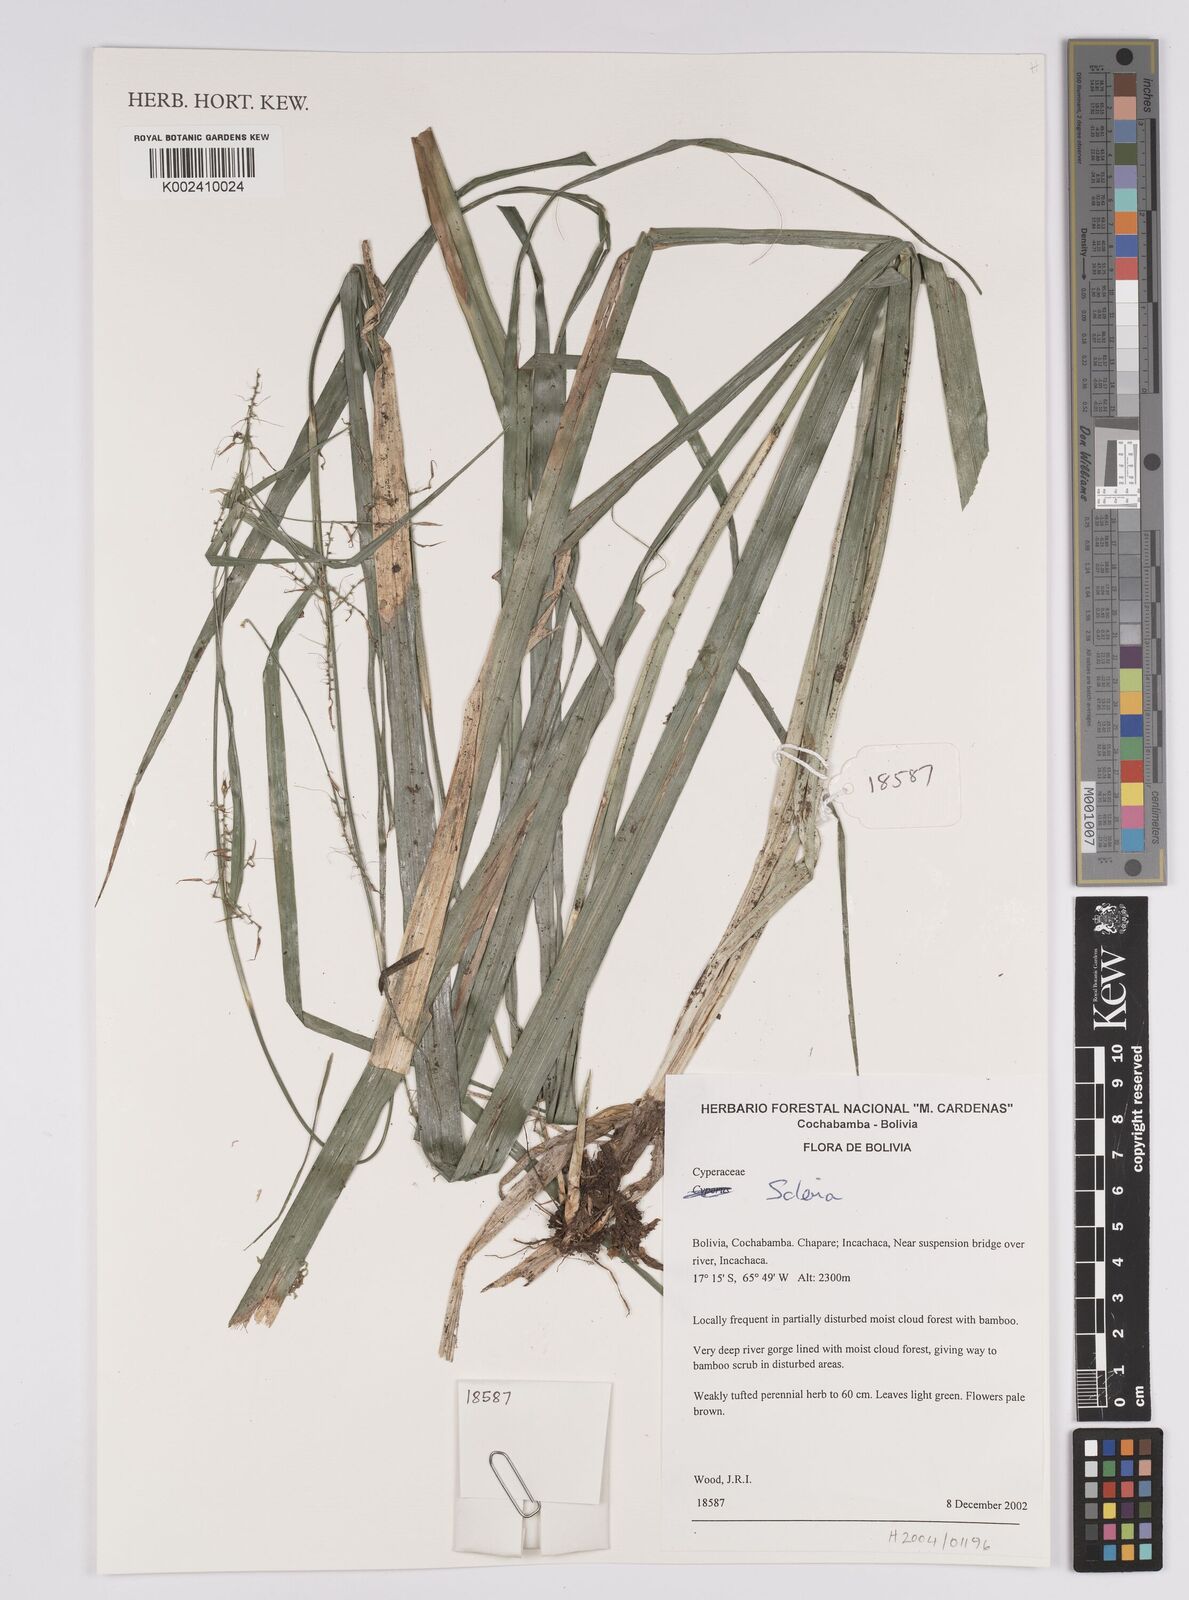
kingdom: Plantae
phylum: Tracheophyta
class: Liliopsida
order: Poales
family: Cyperaceae
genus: Scleria
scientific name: Scleria
